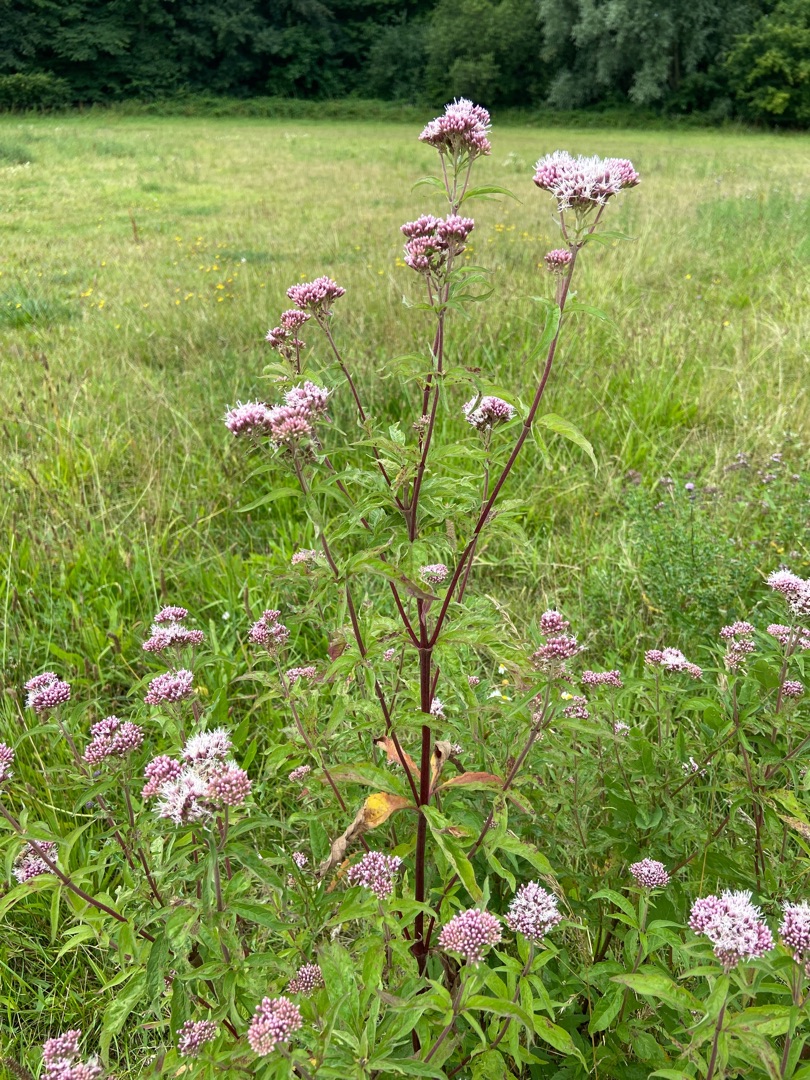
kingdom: Plantae
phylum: Tracheophyta
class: Magnoliopsida
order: Asterales
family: Asteraceae
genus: Eupatorium
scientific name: Eupatorium cannabinum
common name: Hjortetrøst
